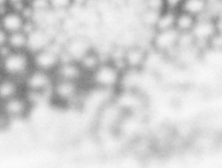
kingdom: Animalia
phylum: Chordata
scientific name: Chordata
